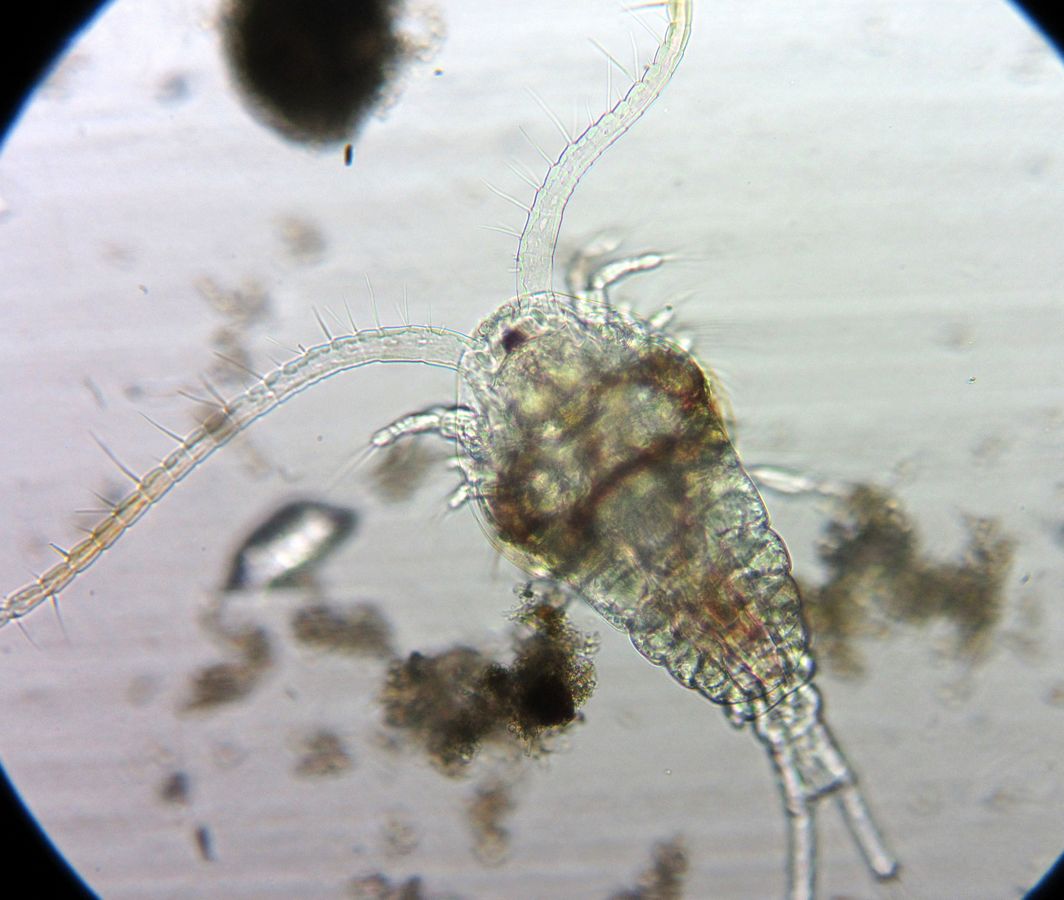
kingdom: Animalia
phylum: Arthropoda
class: Copepoda
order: Calanoida
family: Temoridae
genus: Temora
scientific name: Temora longicornis
